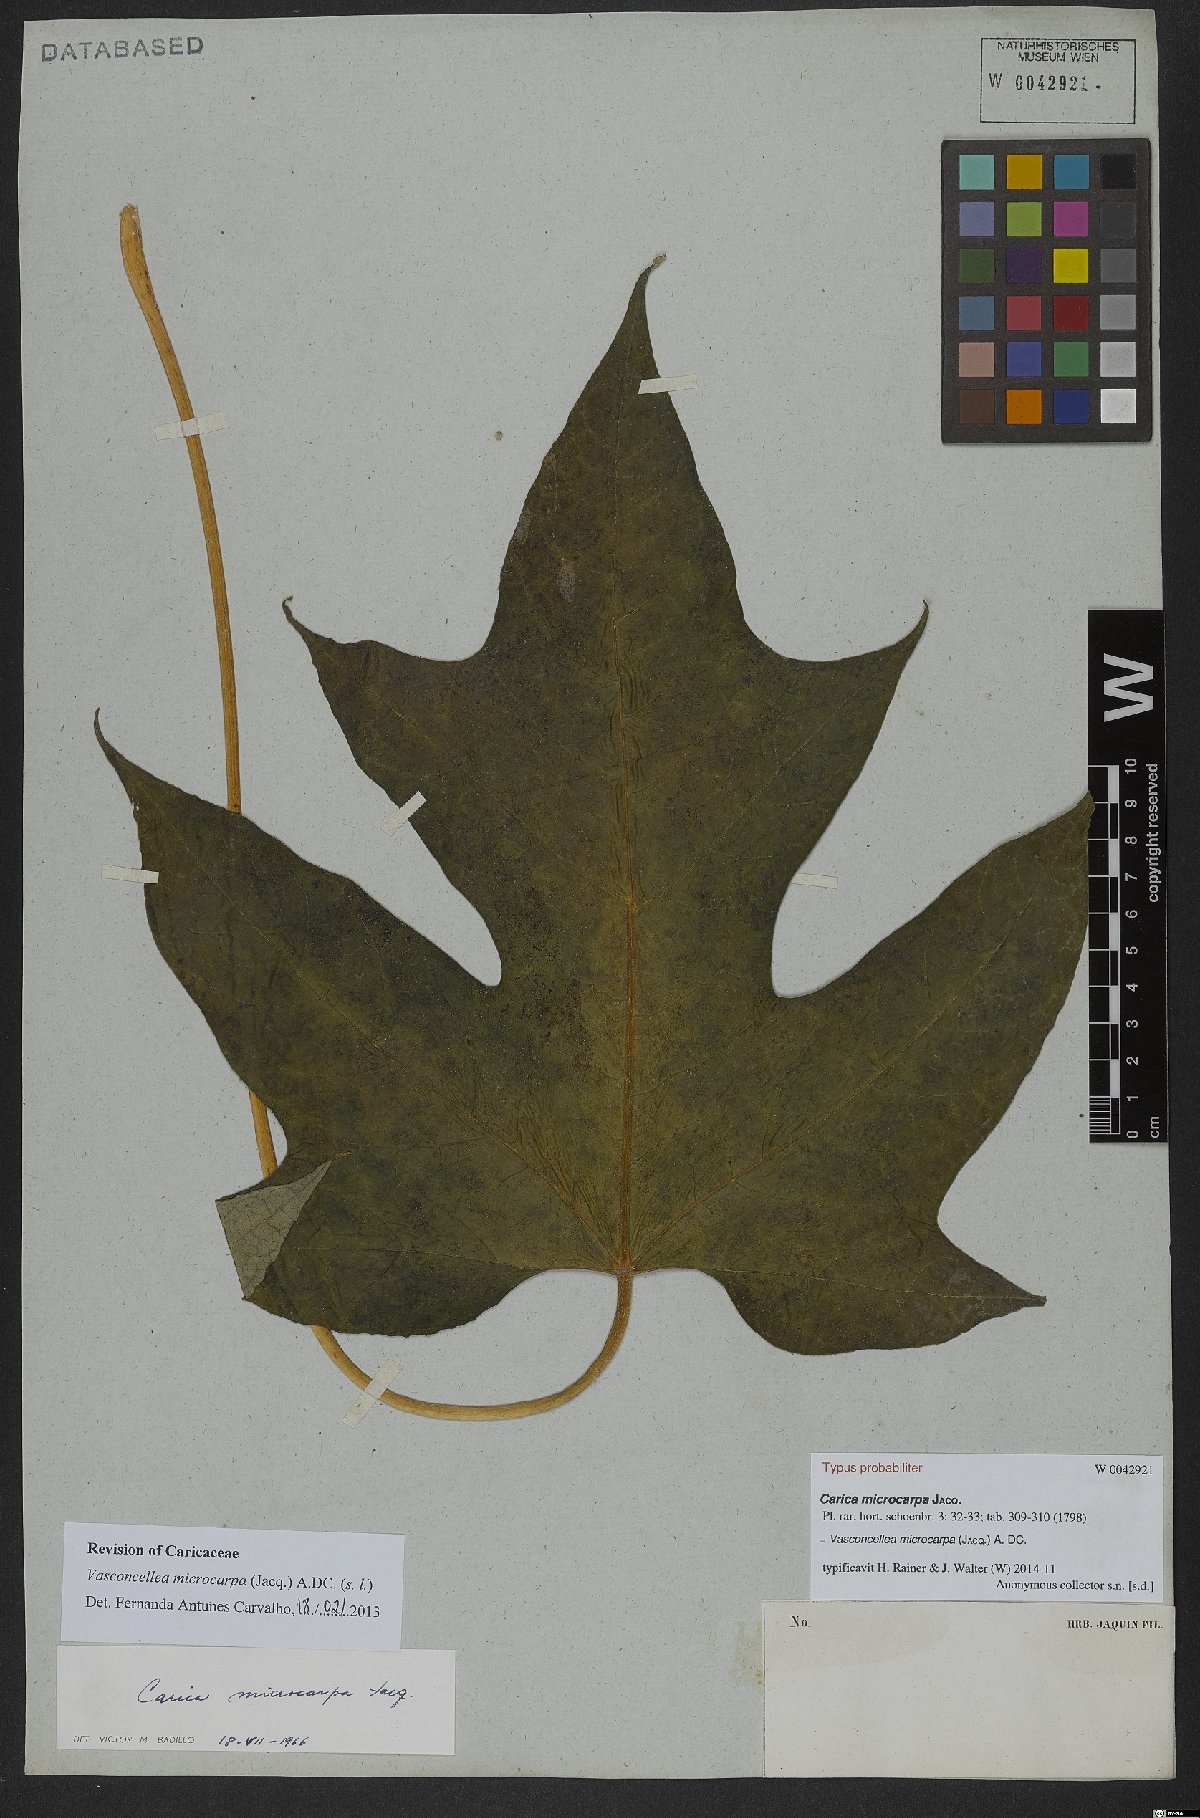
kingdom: Plantae
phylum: Tracheophyta
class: Magnoliopsida
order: Brassicales
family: Caricaceae
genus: Vasconcellea
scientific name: Vasconcellea microcarpa
